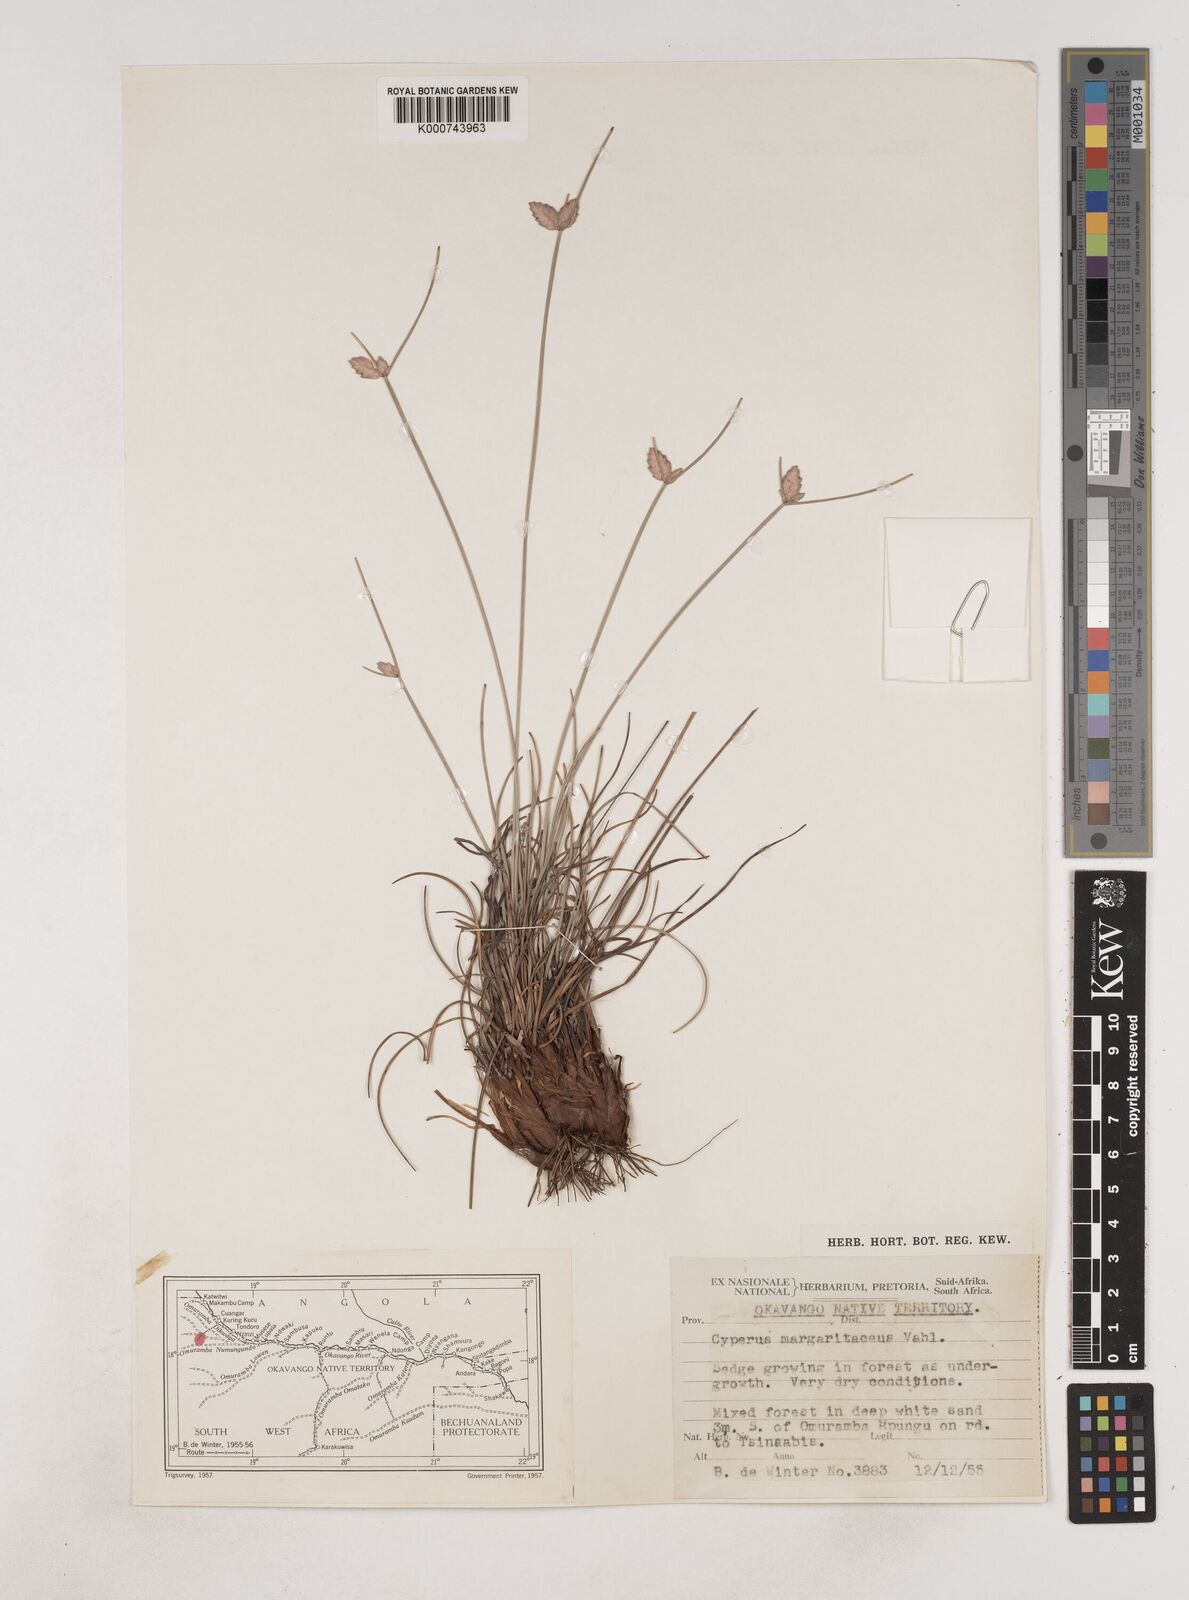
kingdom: Plantae
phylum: Tracheophyta
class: Liliopsida
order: Poales
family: Cyperaceae
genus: Cyperus
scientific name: Cyperus margaritaceus
